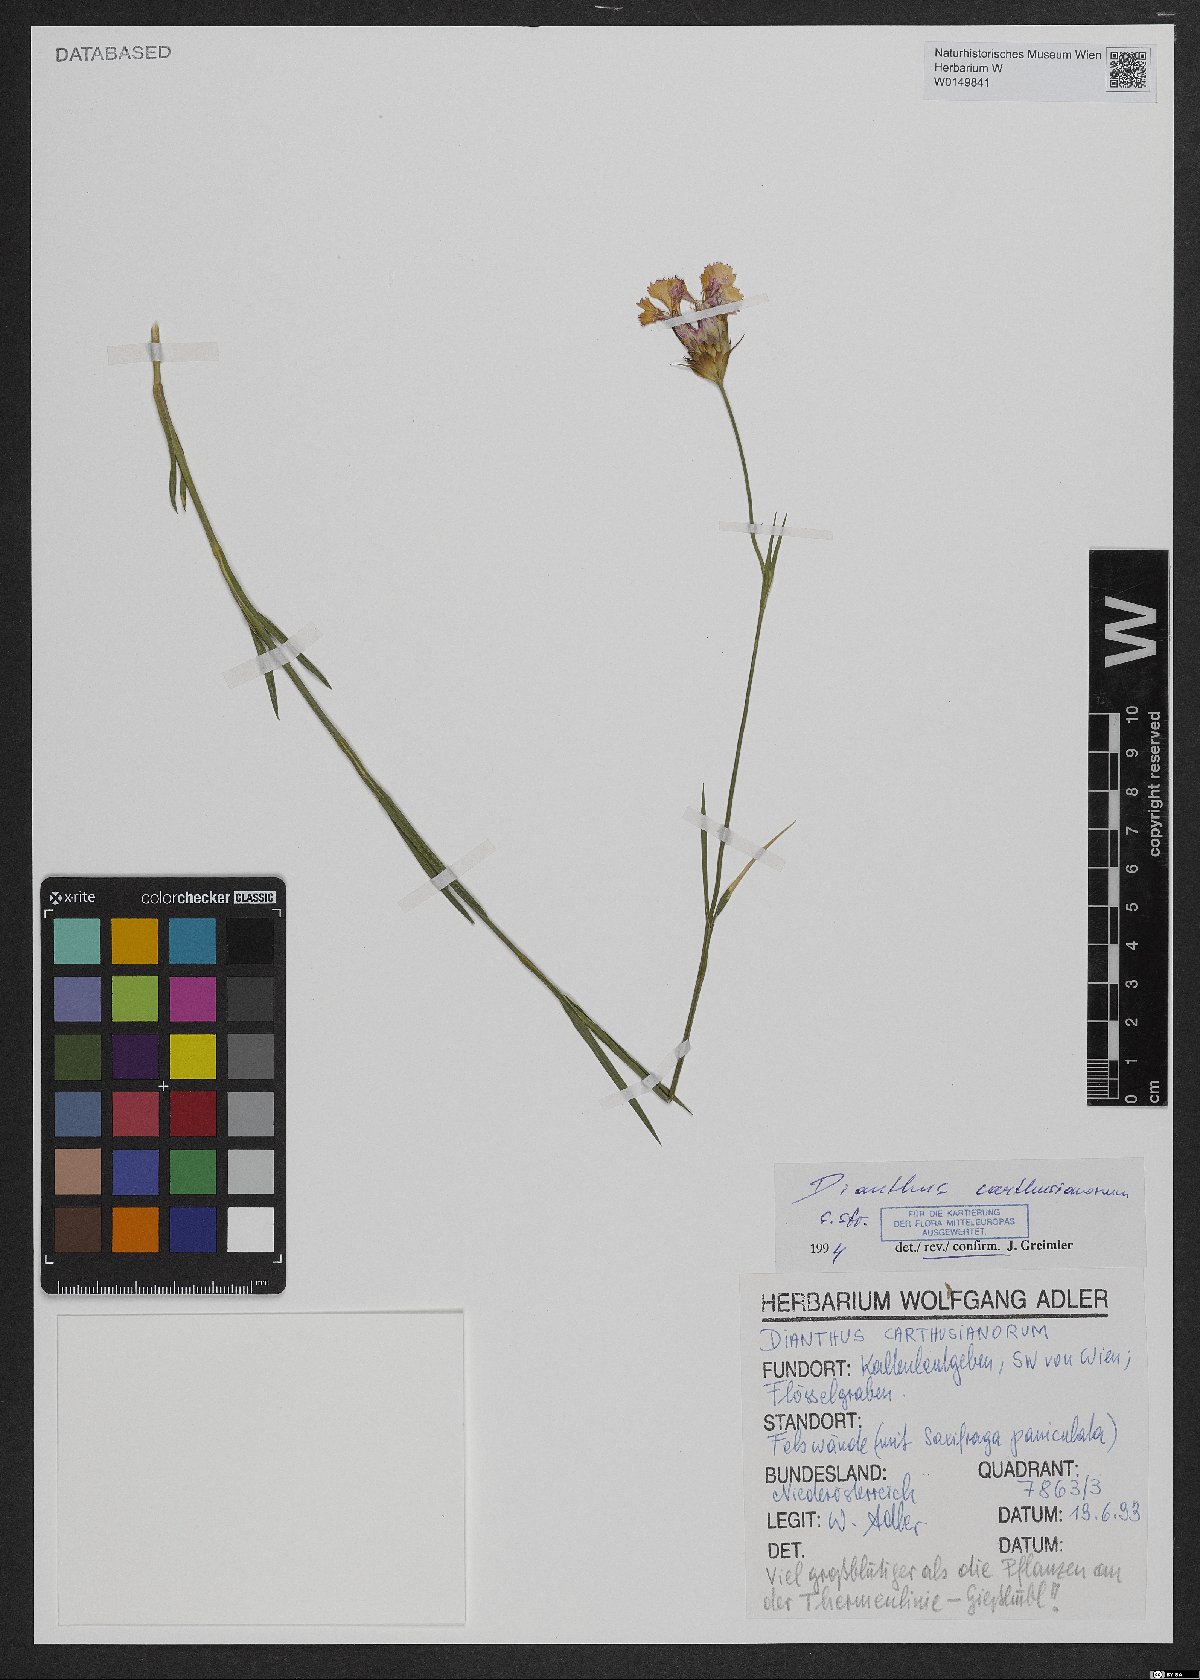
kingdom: Plantae
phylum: Tracheophyta
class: Magnoliopsida
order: Caryophyllales
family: Caryophyllaceae
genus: Dianthus
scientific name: Dianthus carthusianorum
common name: Carthusian pink
